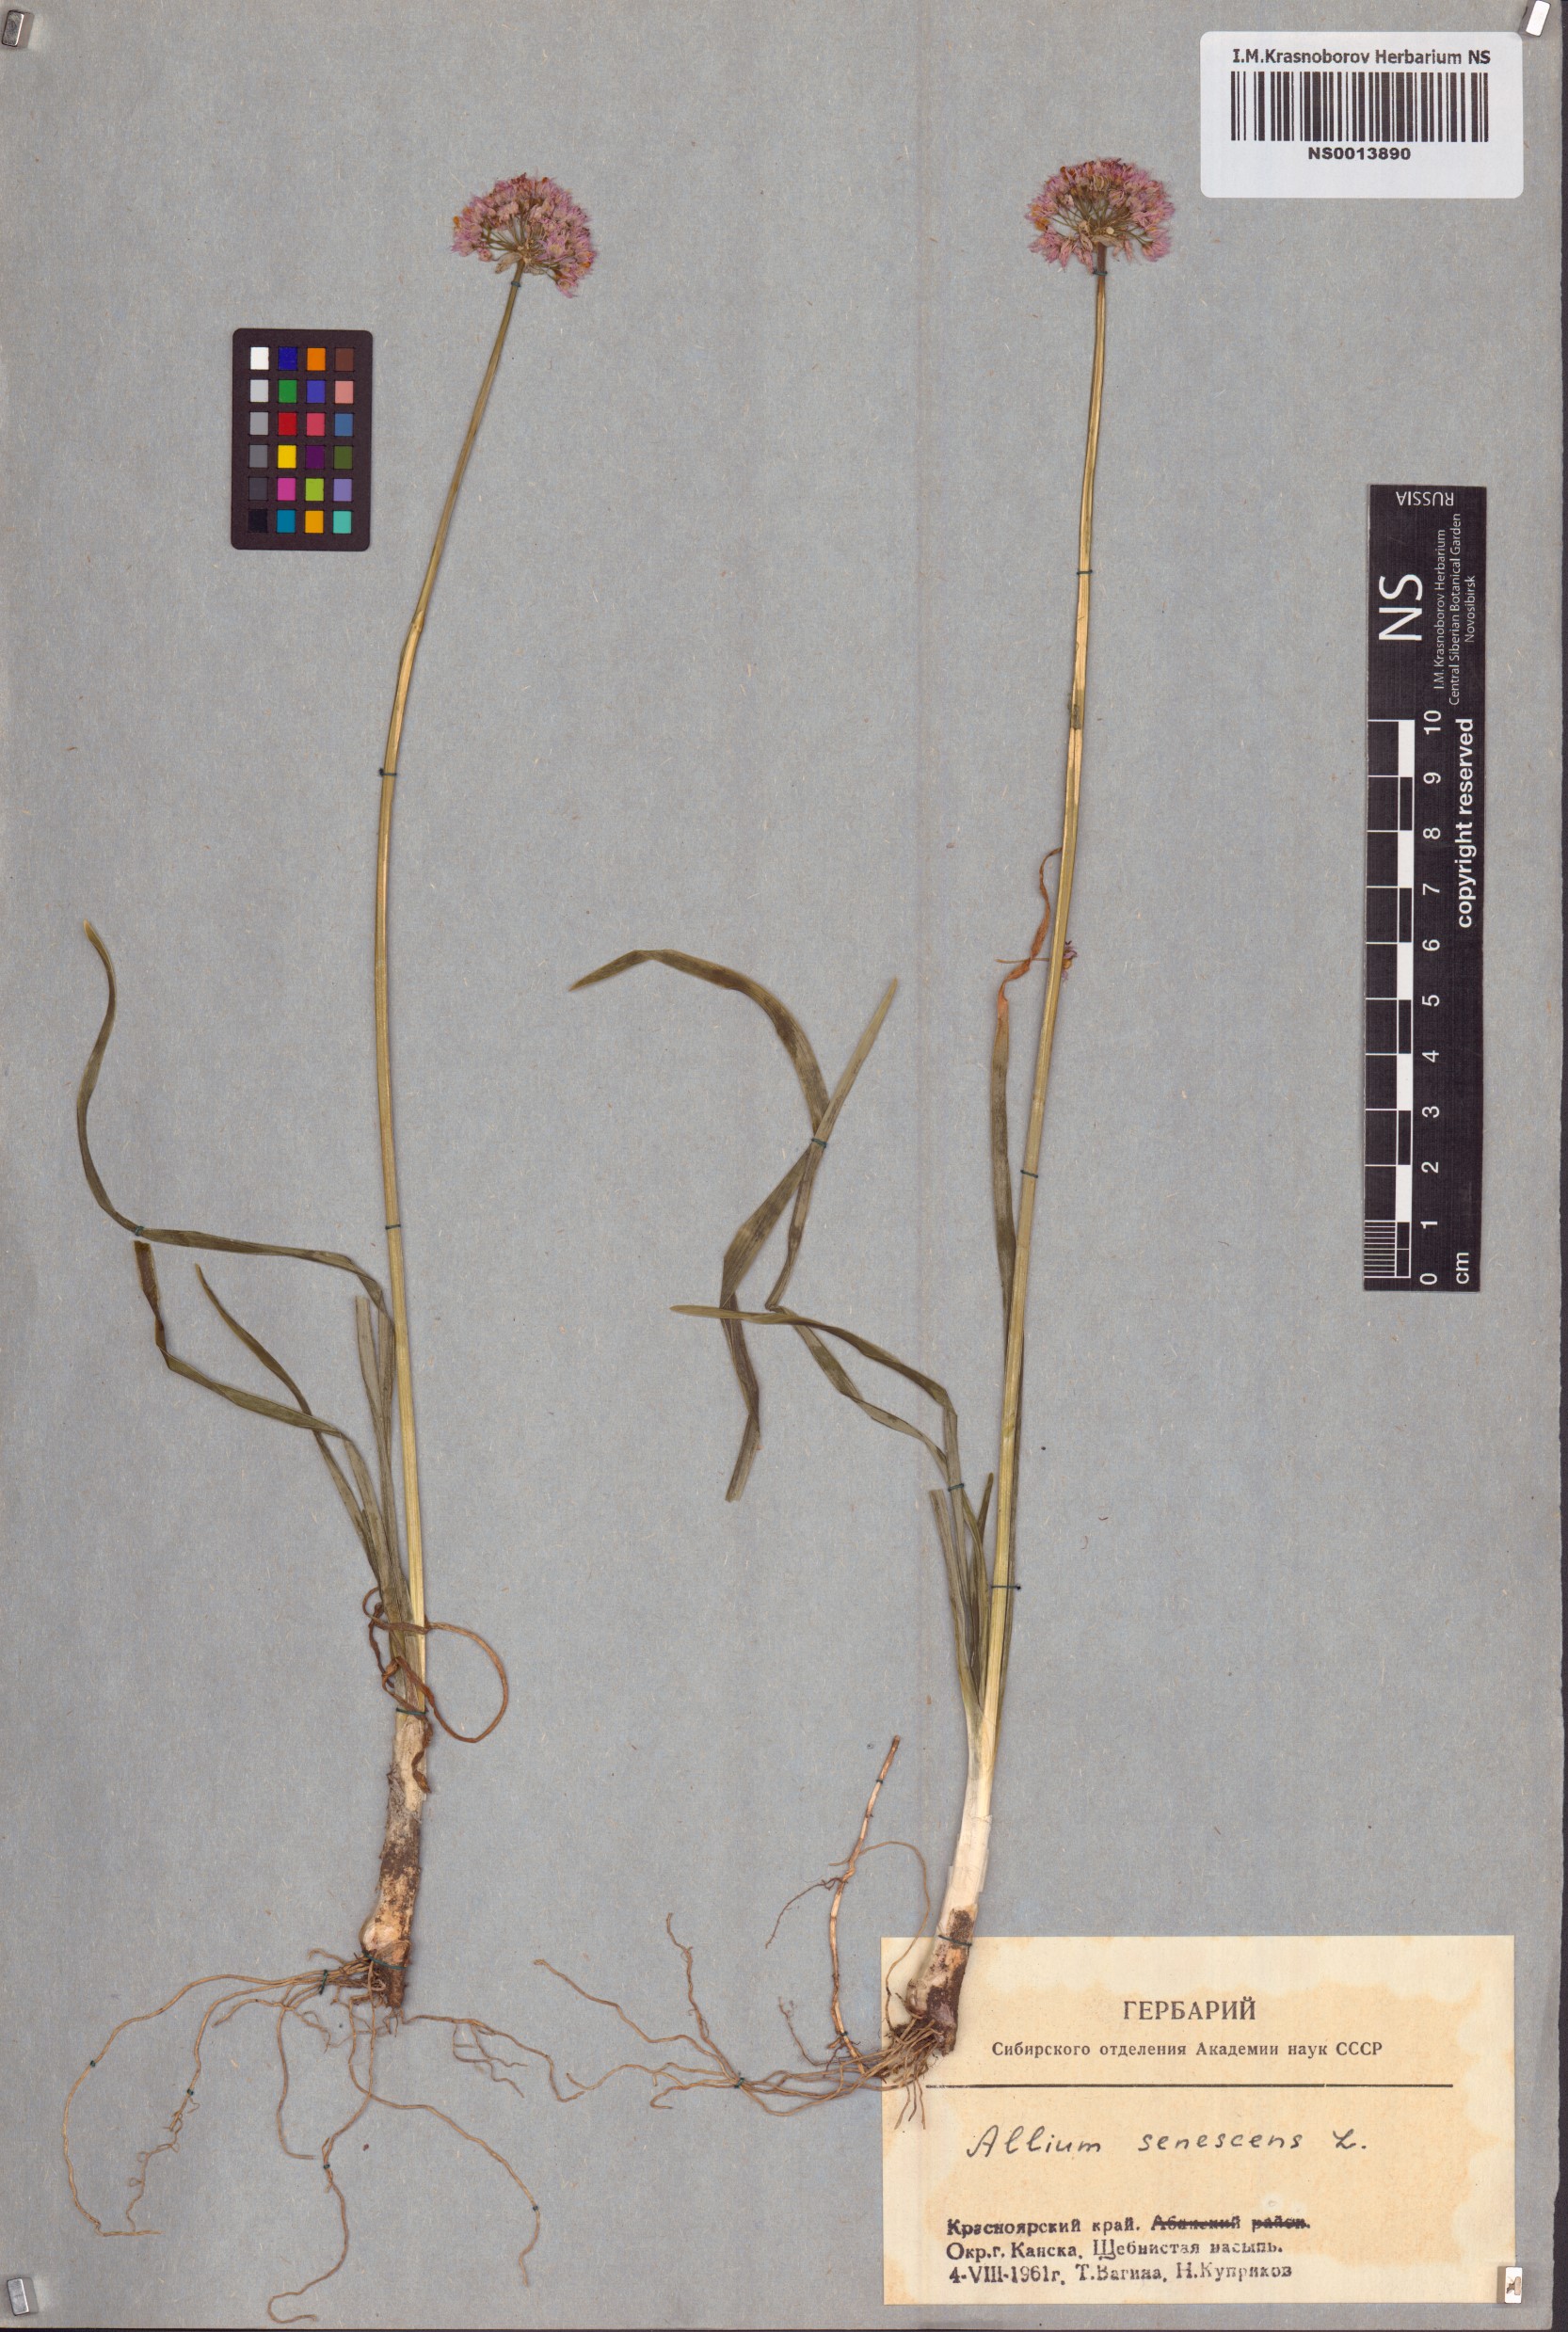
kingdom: Plantae
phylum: Tracheophyta
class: Liliopsida
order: Asparagales
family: Amaryllidaceae
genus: Allium
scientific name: Allium senescens
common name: German garlic
